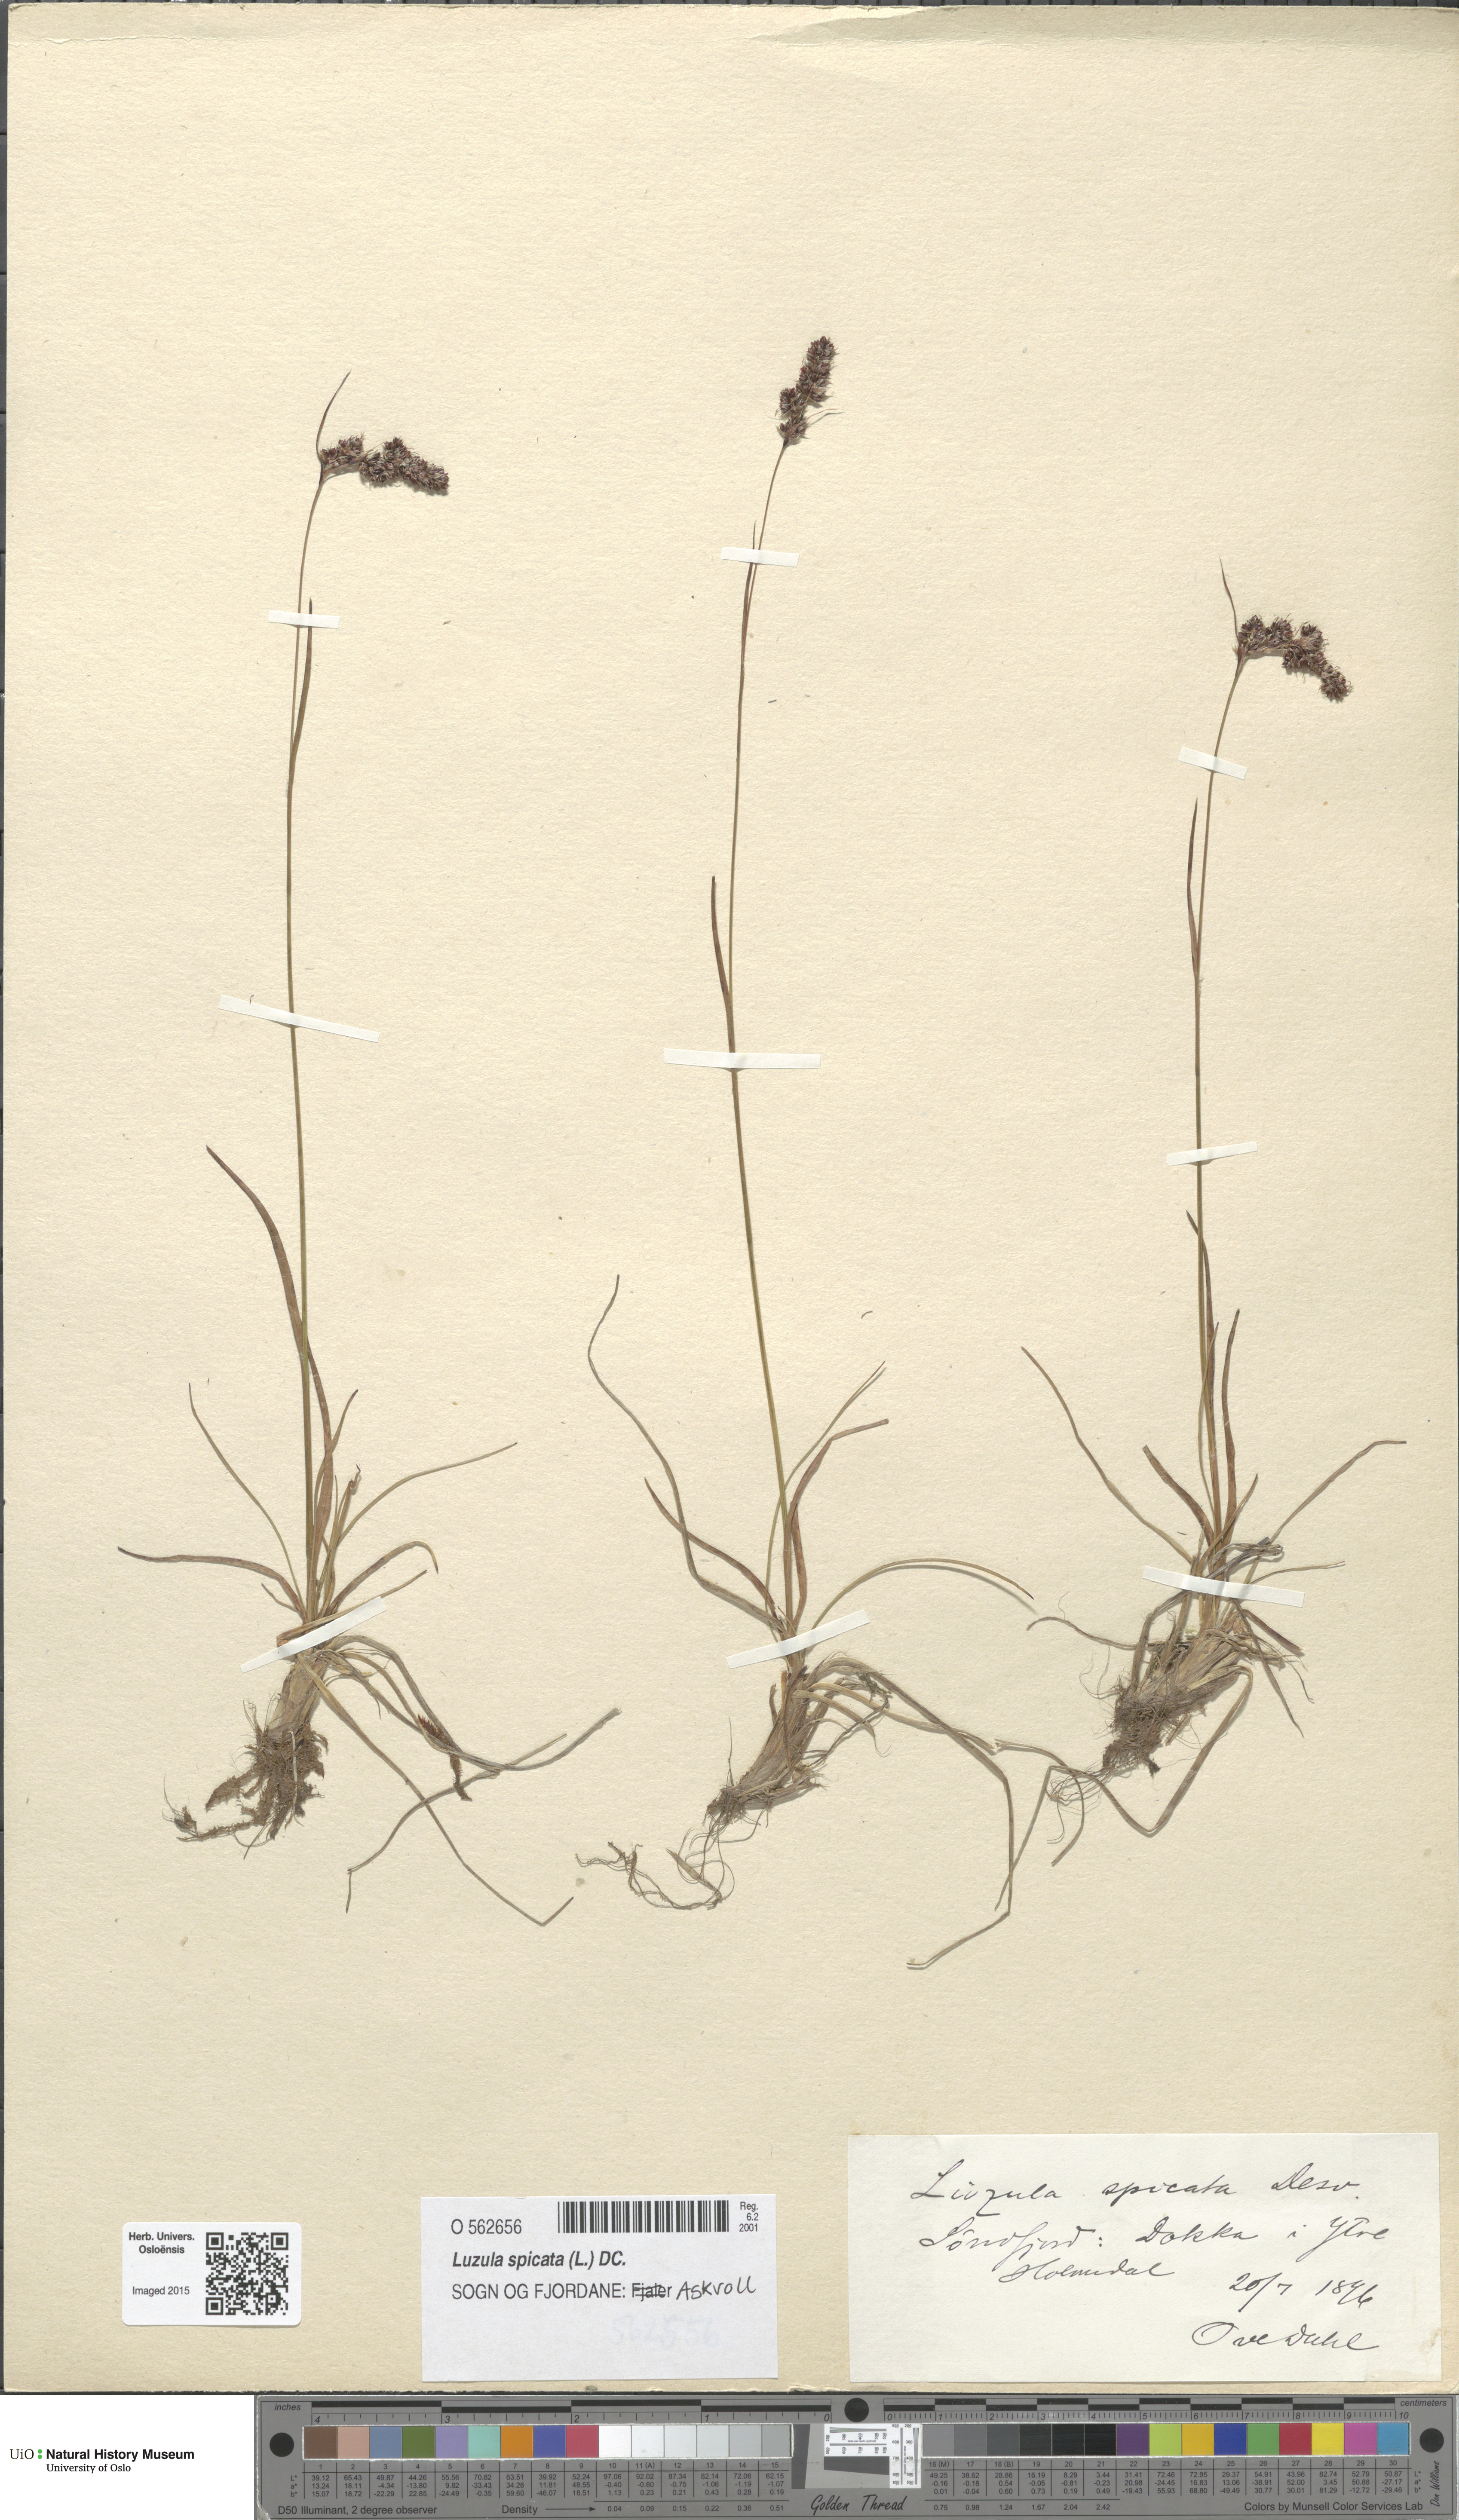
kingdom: Plantae
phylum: Tracheophyta
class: Liliopsida
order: Poales
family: Juncaceae
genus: Luzula
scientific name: Luzula spicata
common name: Spiked wood-rush
